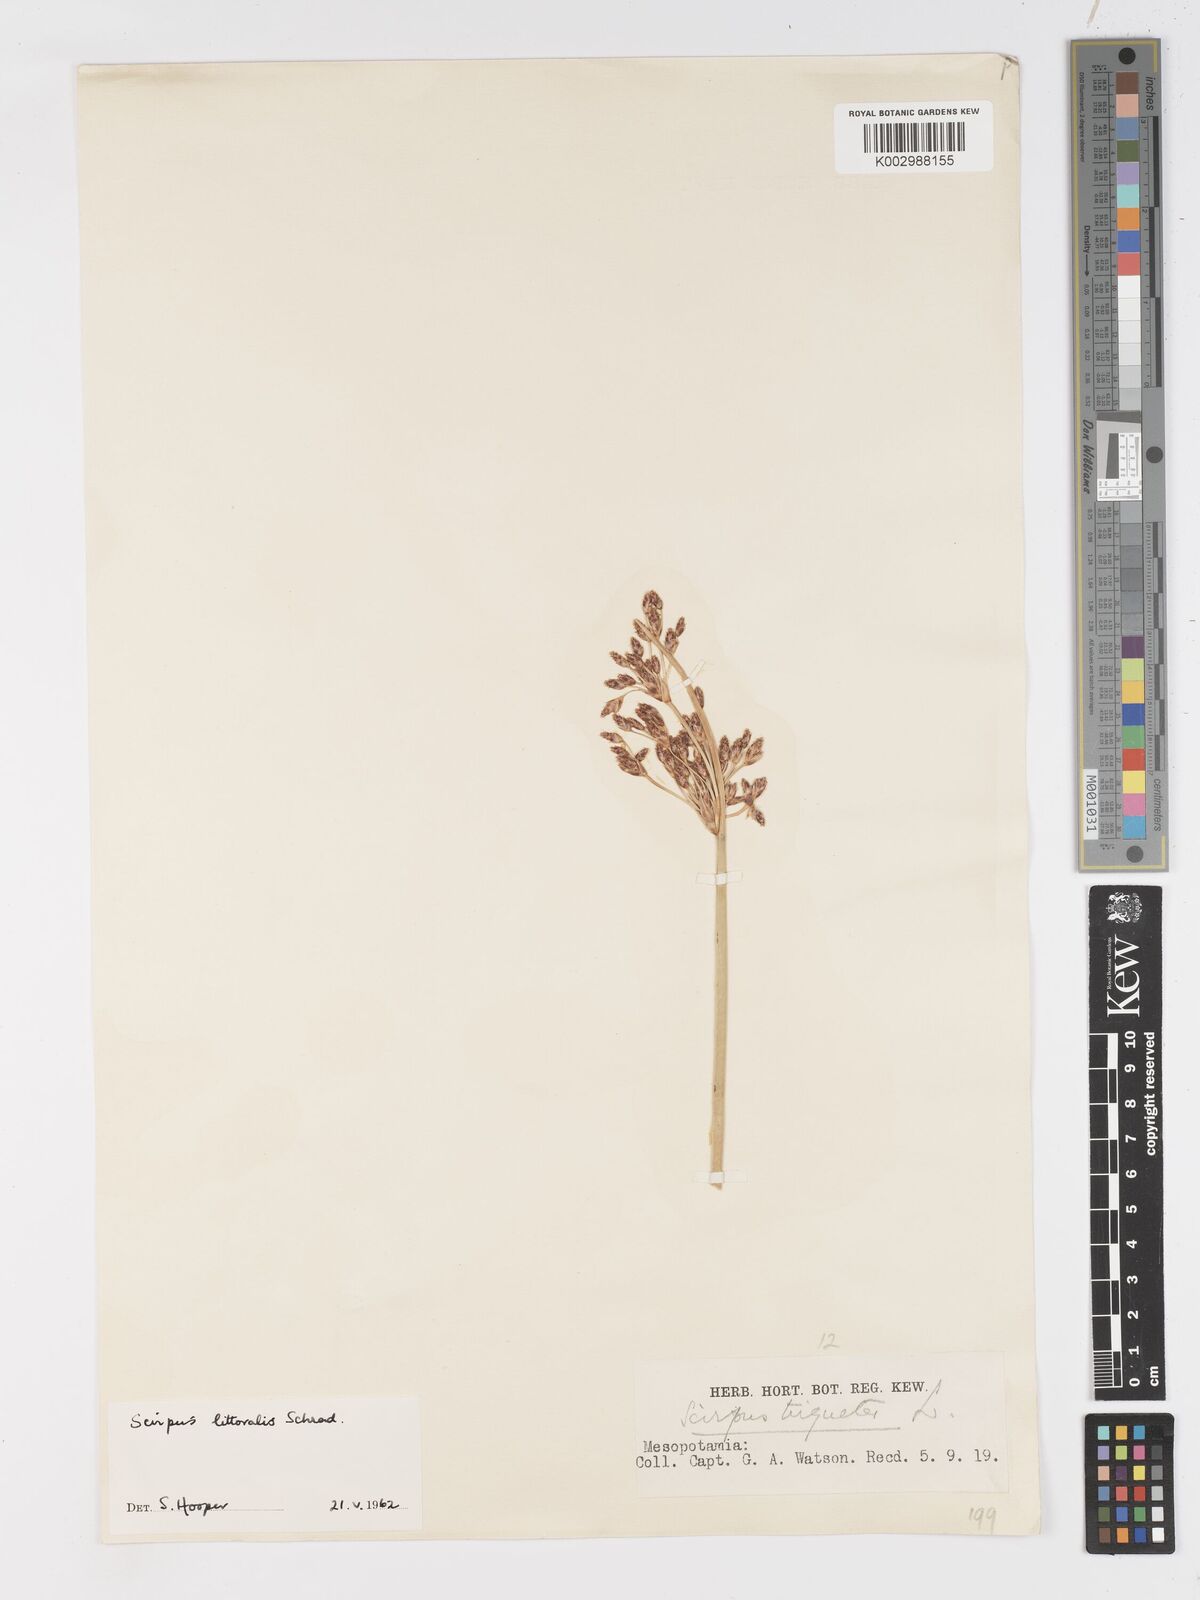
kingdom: Plantae
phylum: Tracheophyta
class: Liliopsida
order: Poales
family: Cyperaceae
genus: Schoenoplectus
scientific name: Schoenoplectus litoralis
